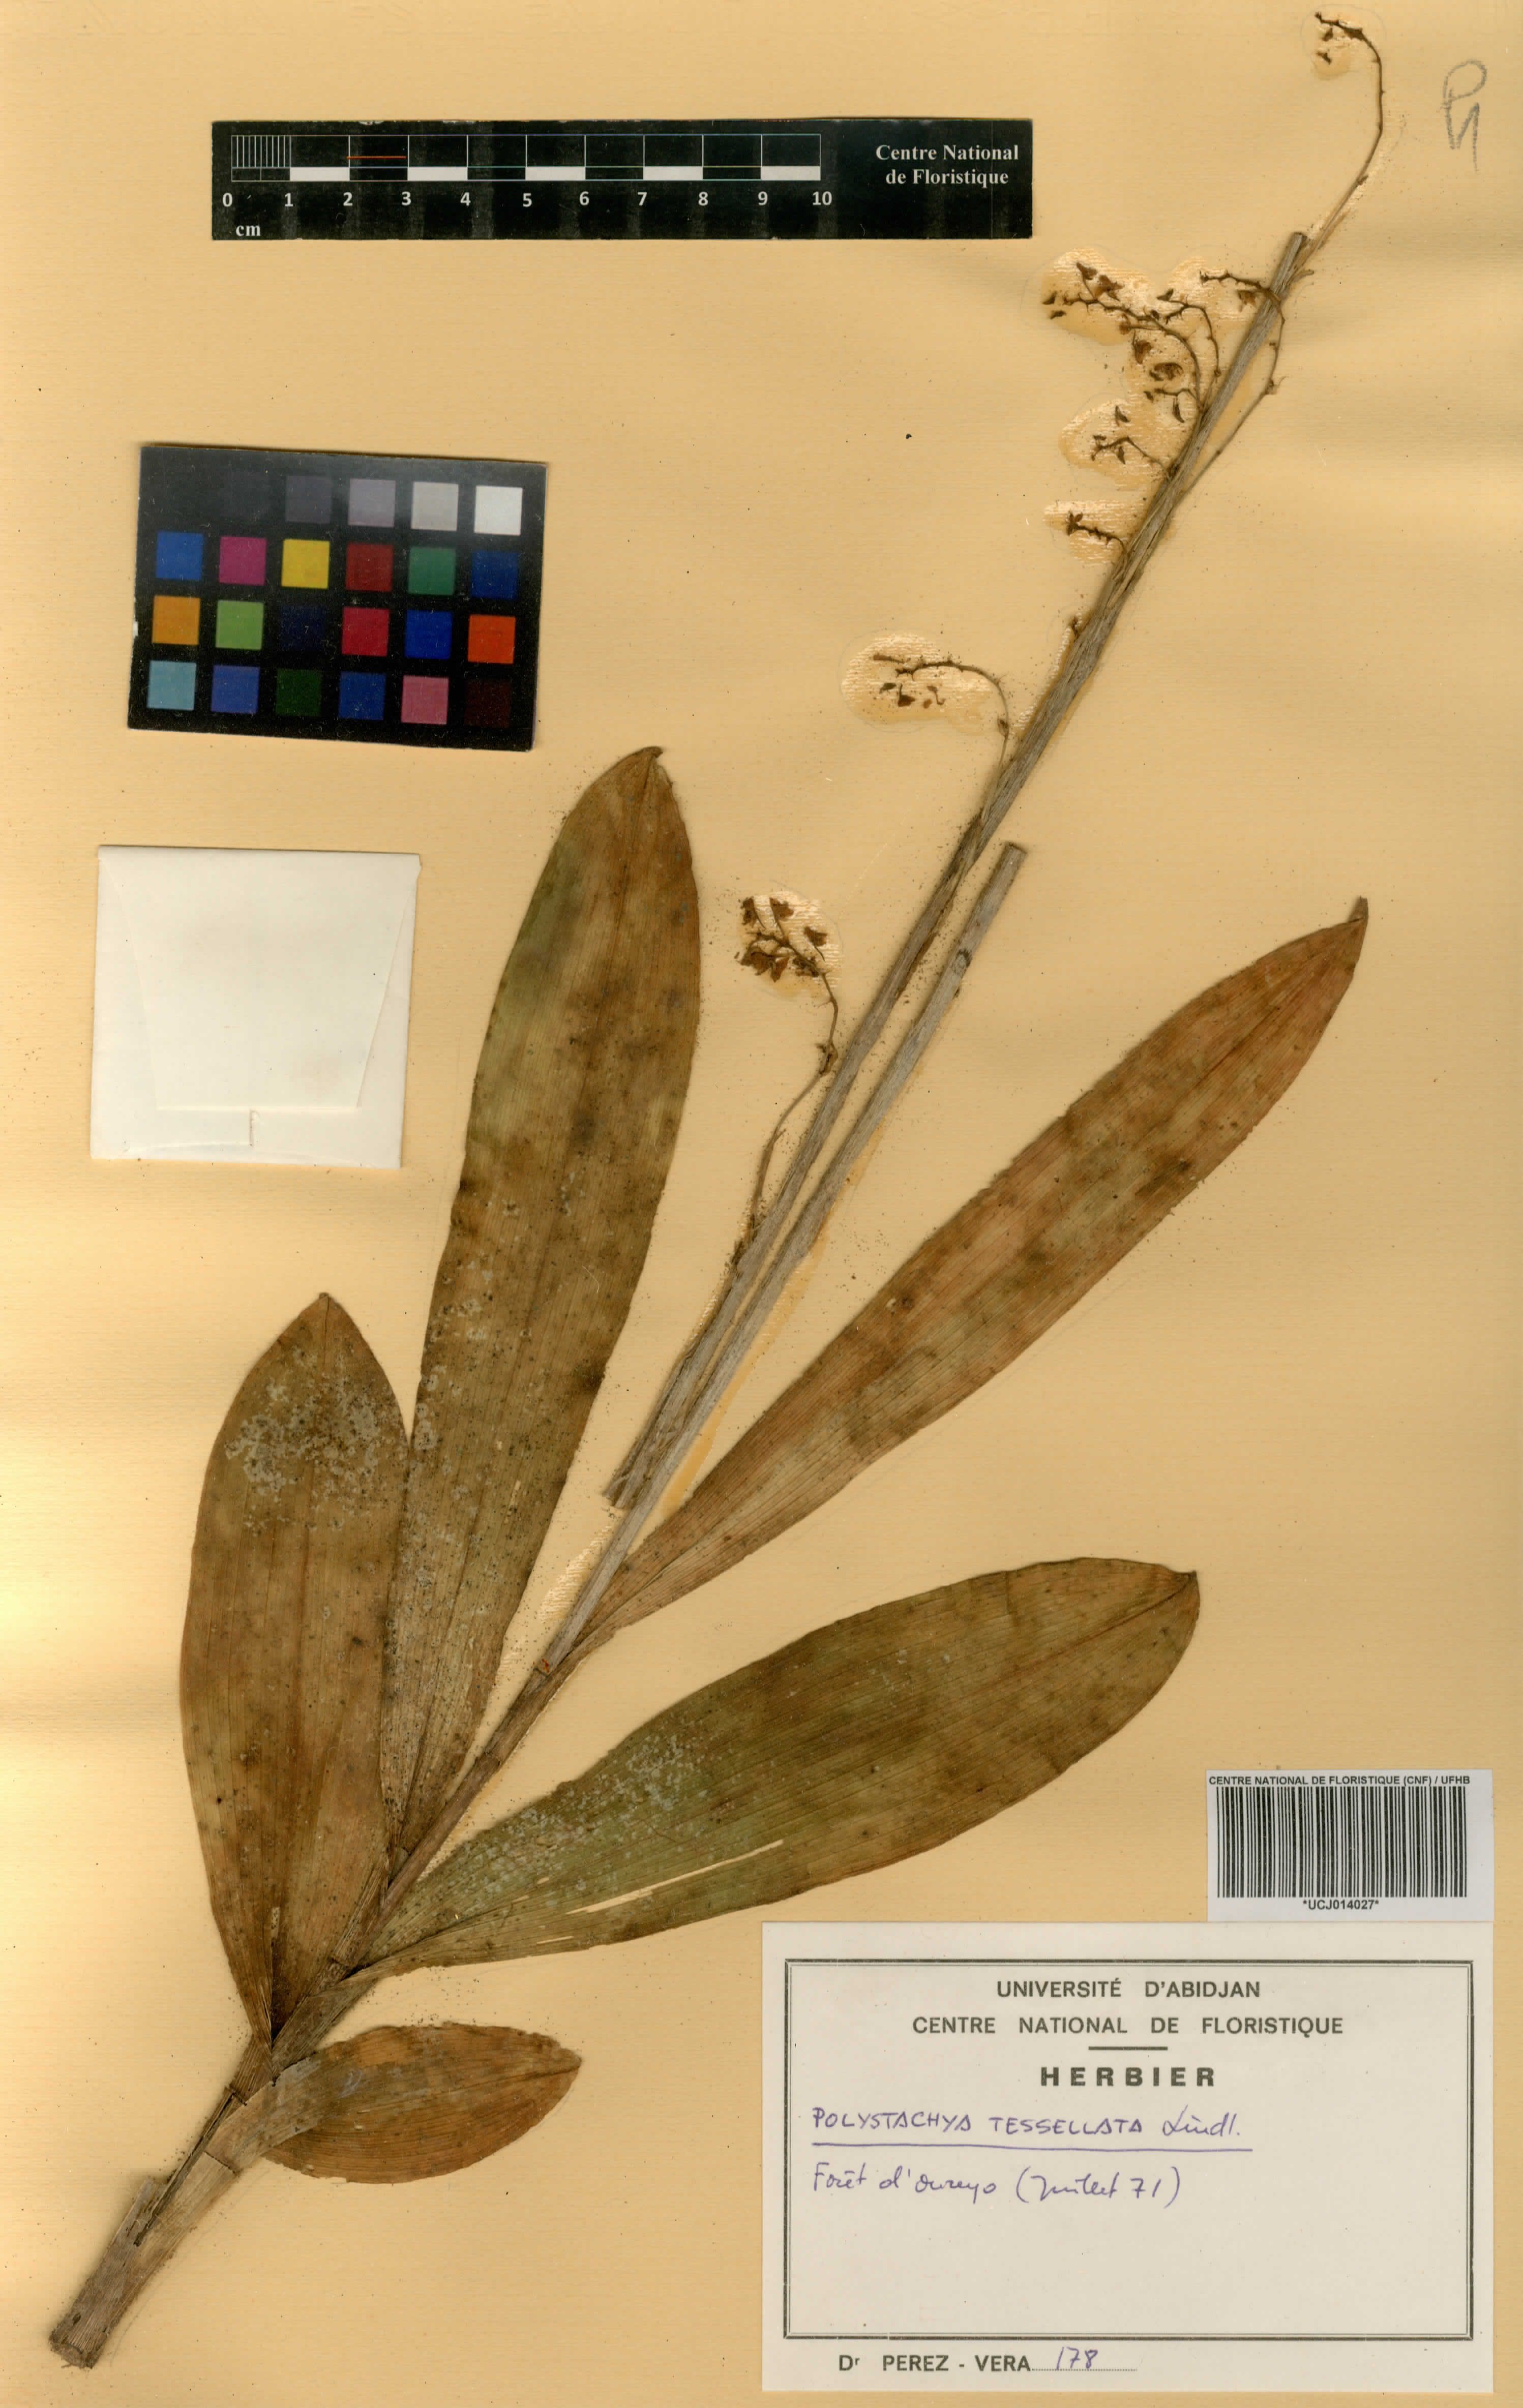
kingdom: Plantae
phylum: Tracheophyta
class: Liliopsida
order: Asparagales
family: Orchidaceae
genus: Polystachya
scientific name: Polystachya concreta
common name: Greater yellowspike orchid
